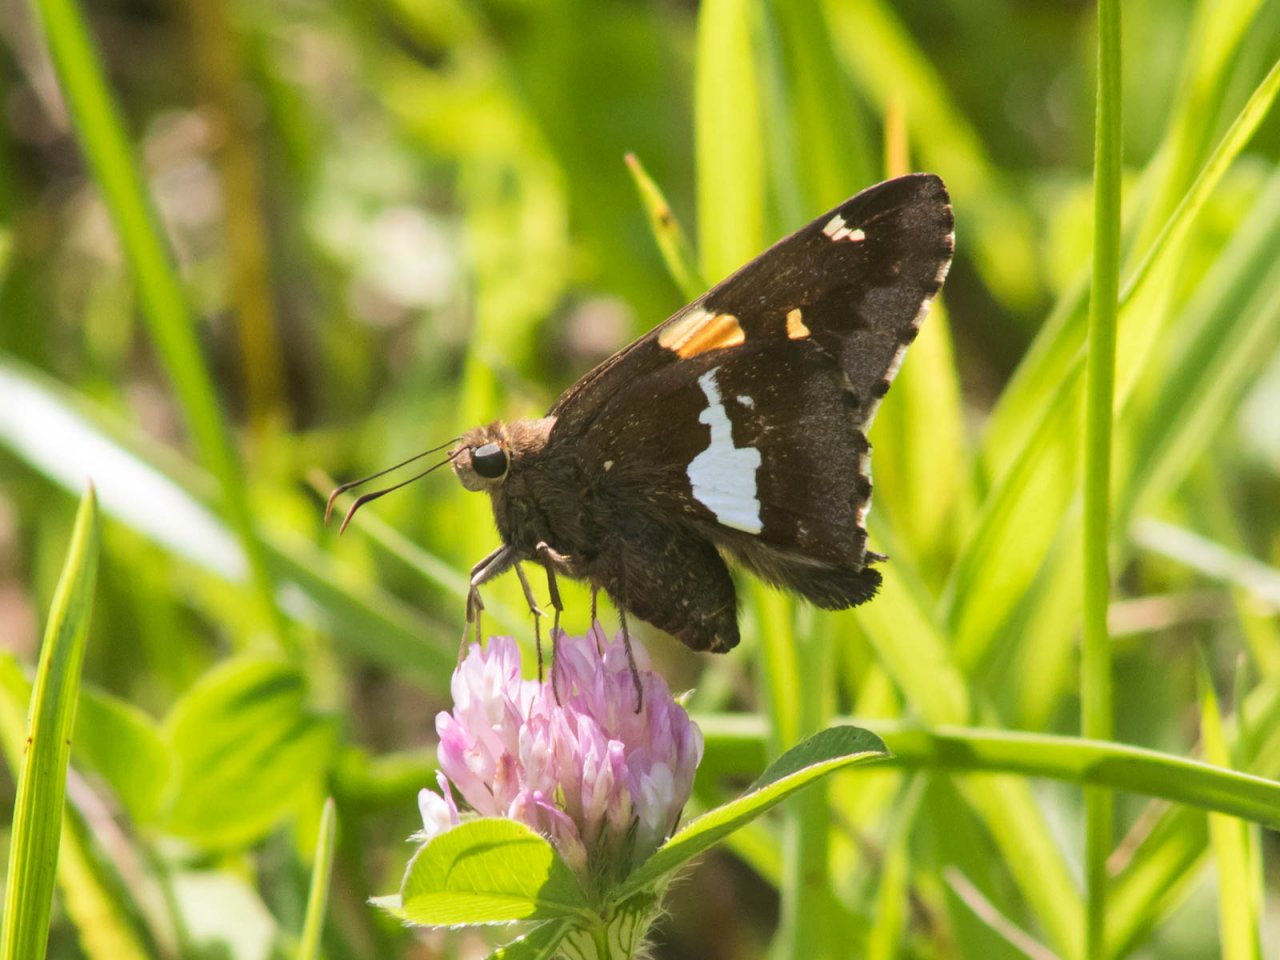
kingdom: Animalia
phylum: Arthropoda
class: Insecta
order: Lepidoptera
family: Hesperiidae
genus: Epargyreus
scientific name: Epargyreus clarus
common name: Silver-spotted Skipper
